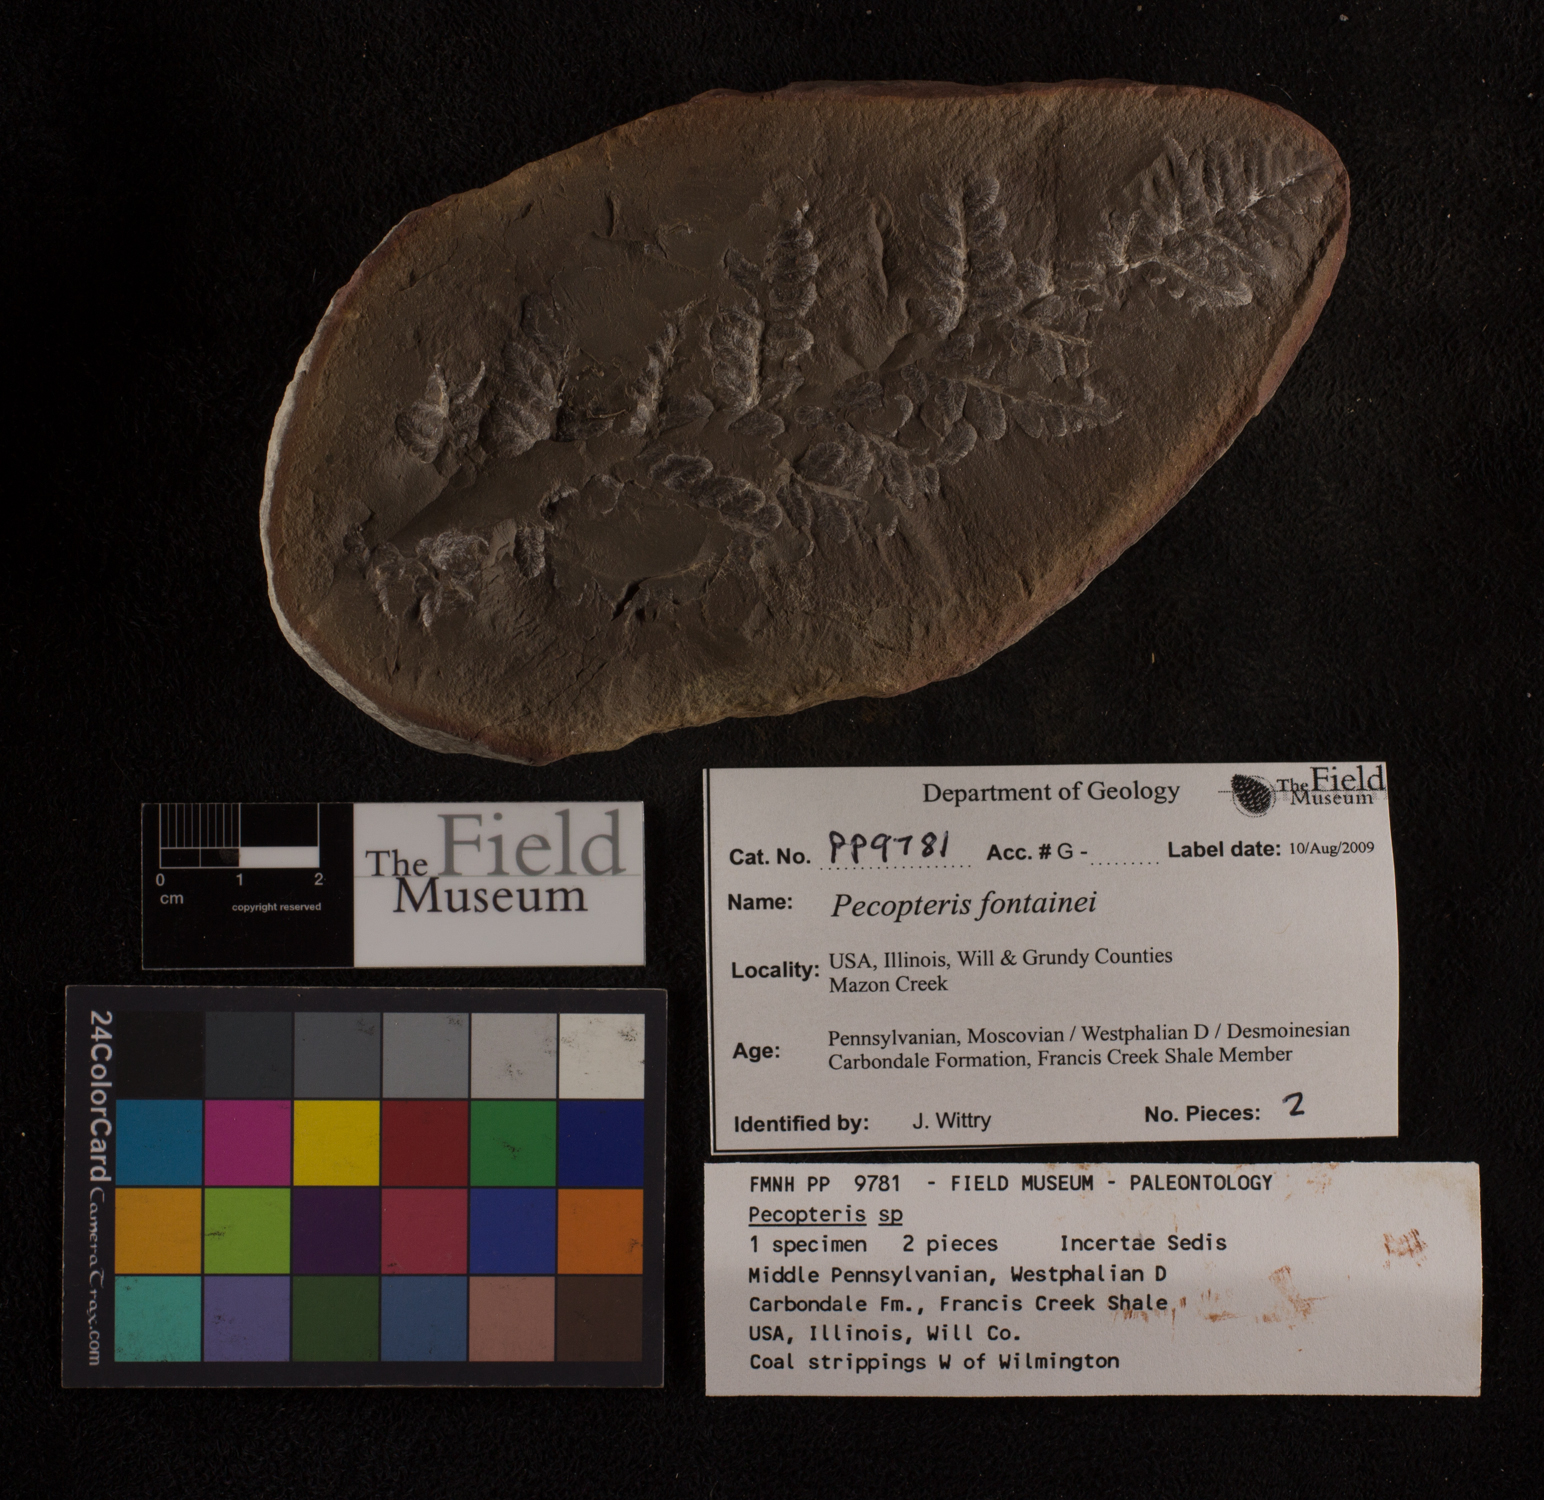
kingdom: Plantae
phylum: Tracheophyta
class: Polypodiopsida
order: Marattiales
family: Asterothecaceae
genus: Pecopteris
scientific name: Pecopteris
